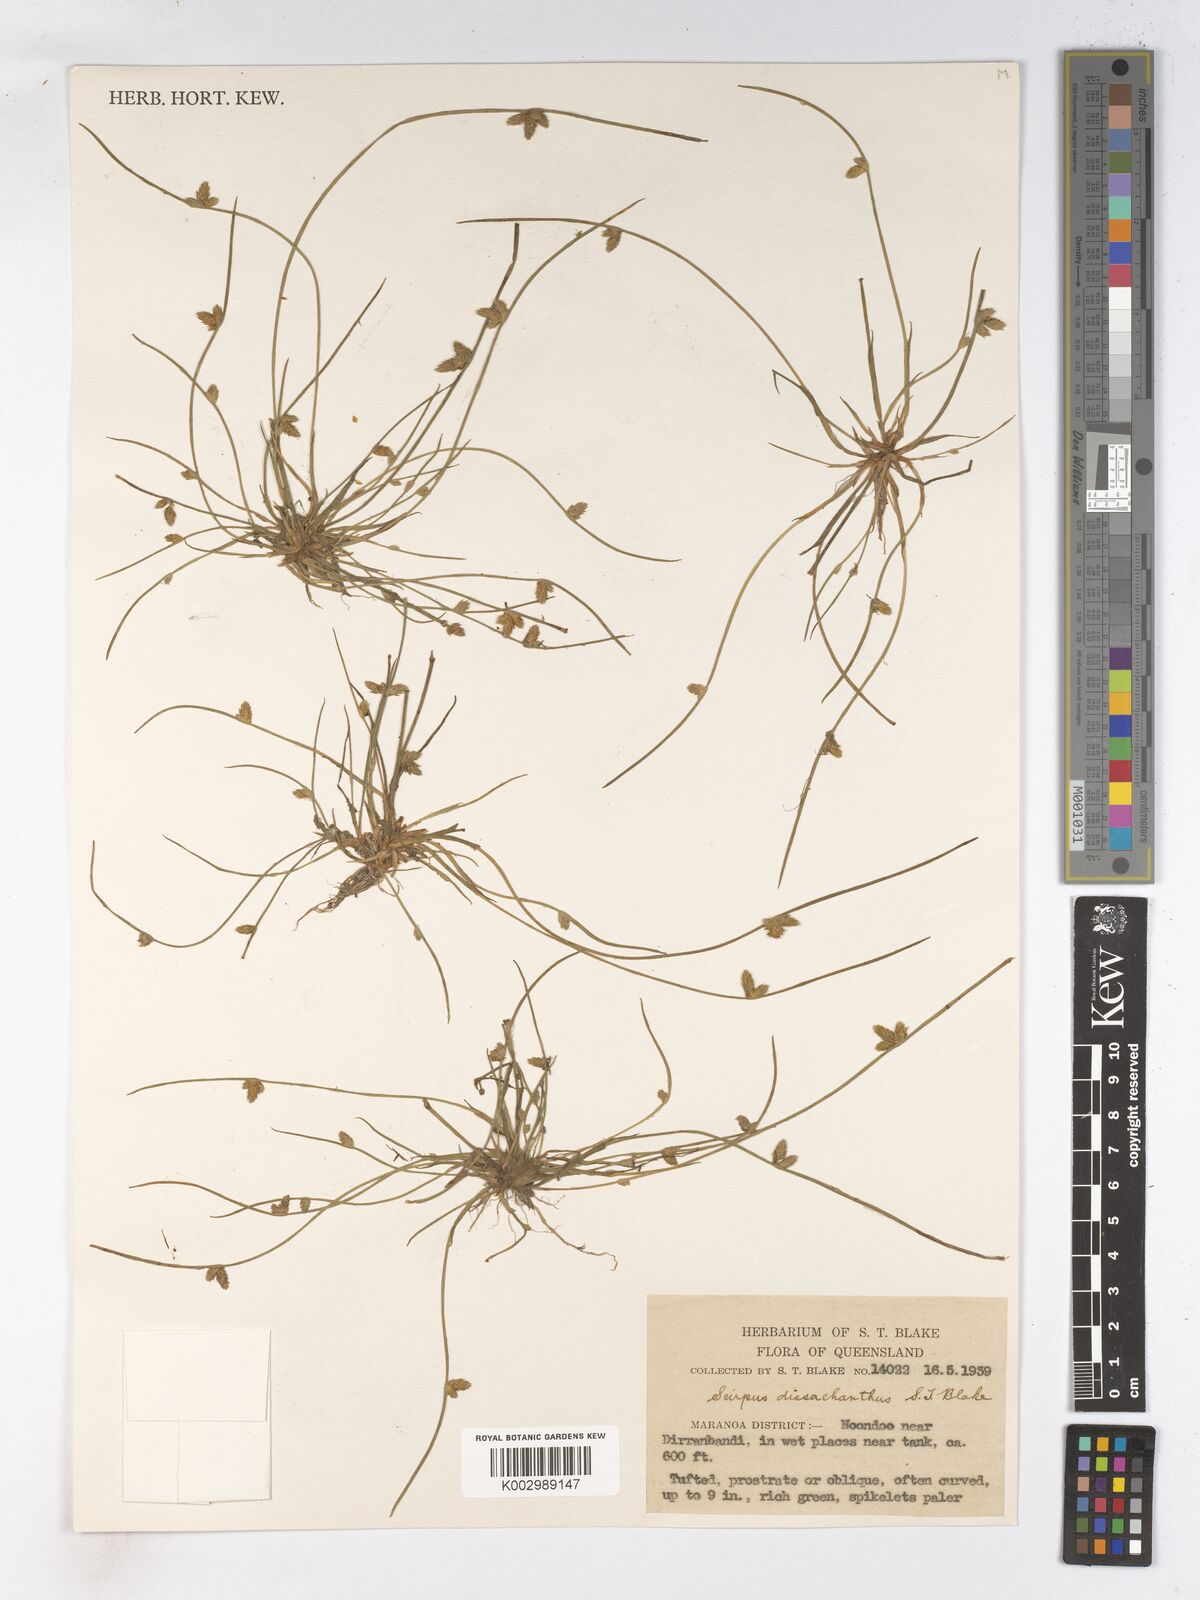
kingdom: Plantae
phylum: Tracheophyta
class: Liliopsida
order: Poales
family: Cyperaceae
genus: Schoenoplectiella
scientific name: Schoenoplectiella dissachantha
